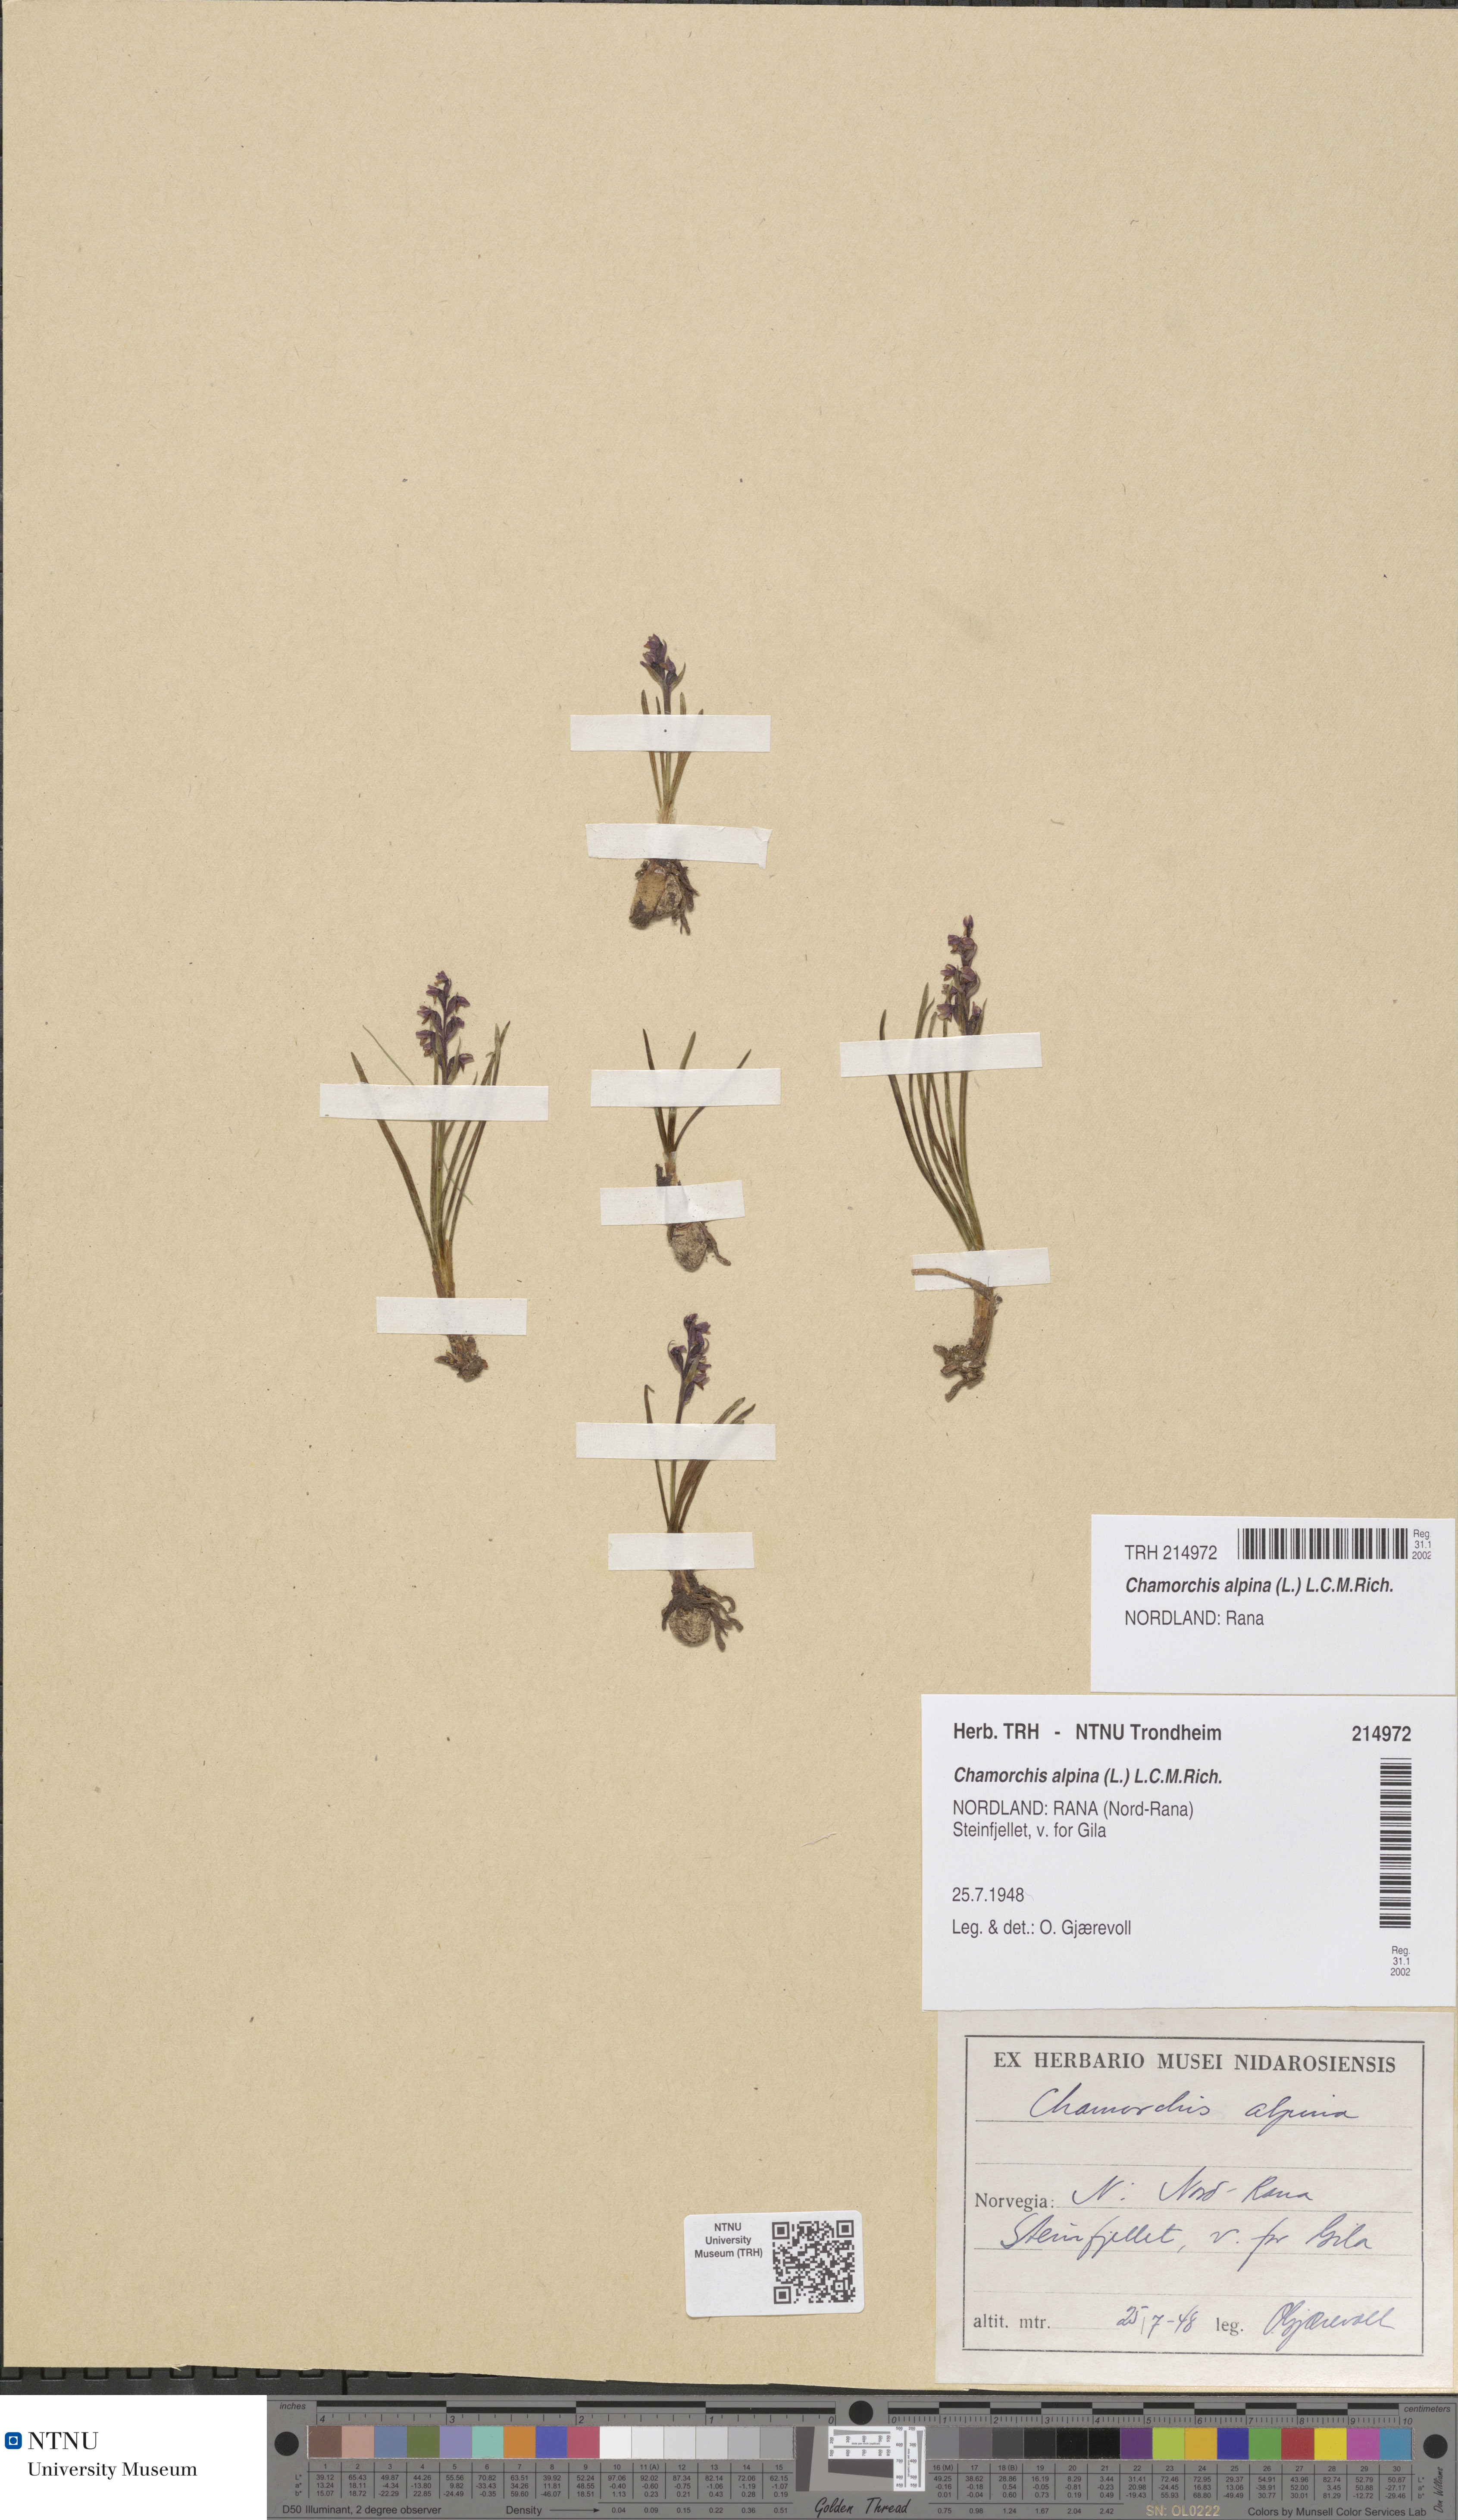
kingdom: Plantae
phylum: Tracheophyta
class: Liliopsida
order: Asparagales
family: Orchidaceae
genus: Chamorchis
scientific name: Chamorchis alpina
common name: Alpine chamorchis
